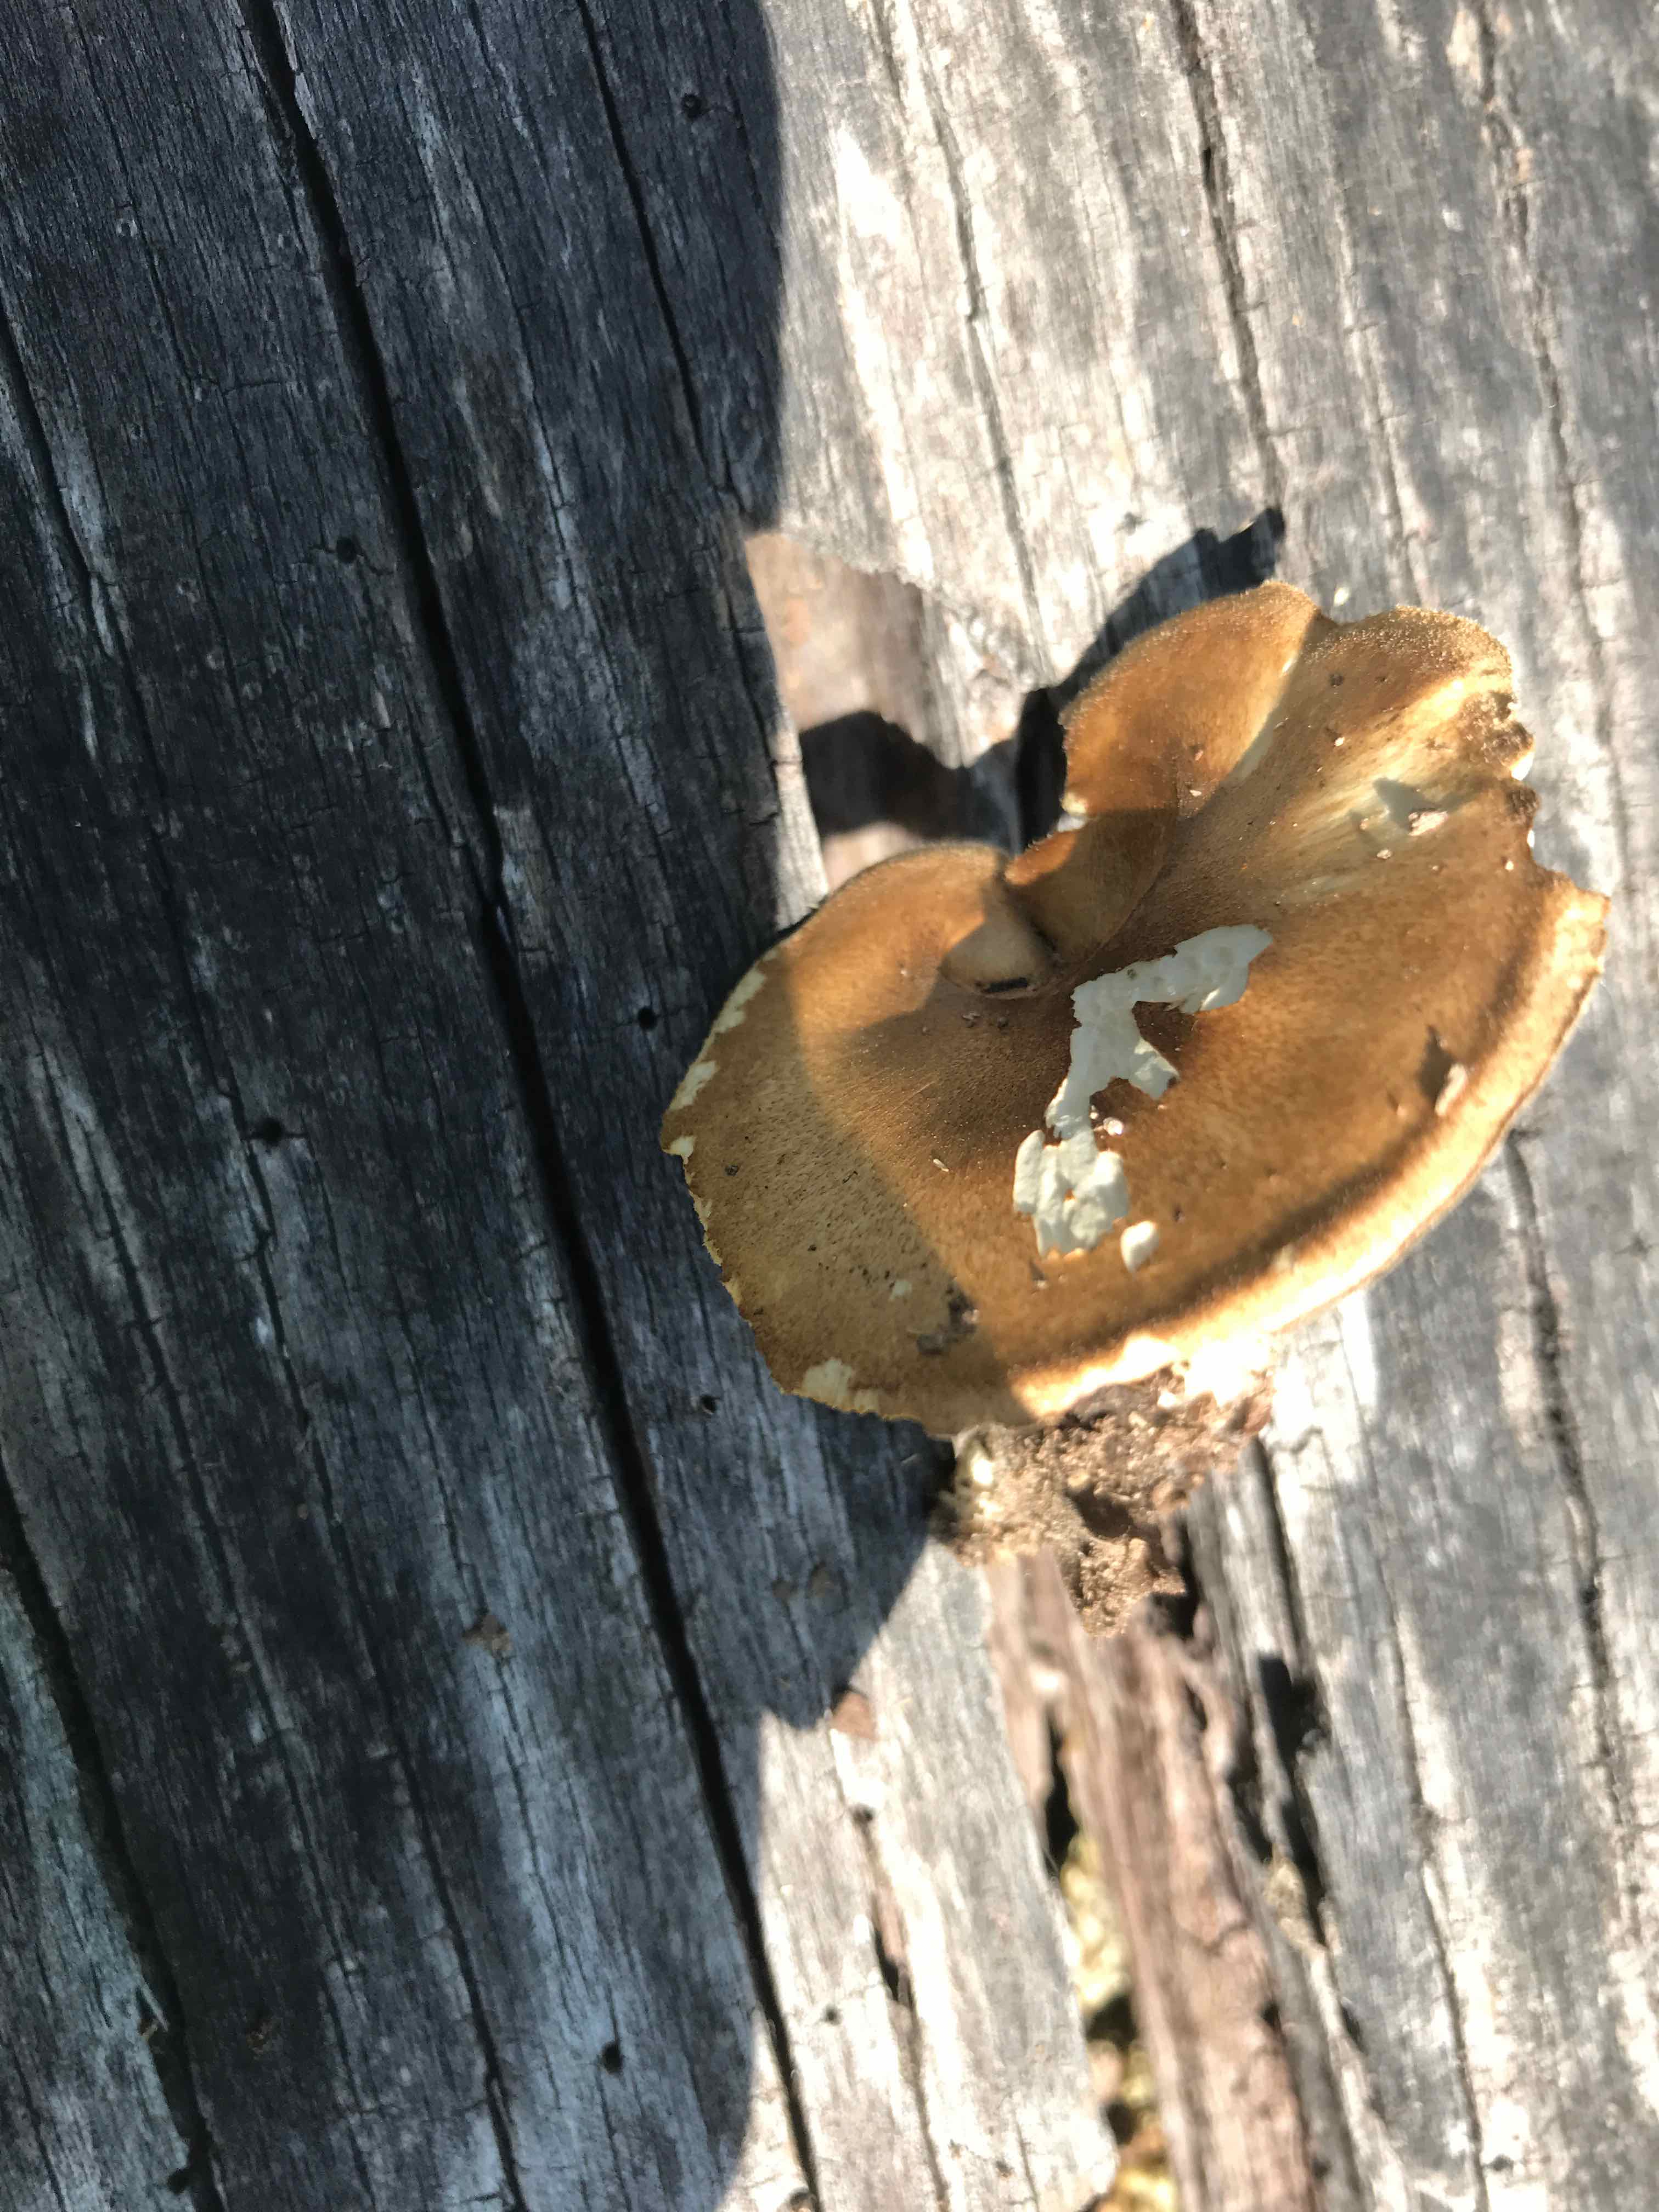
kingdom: Fungi
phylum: Basidiomycota
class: Agaricomycetes
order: Polyporales
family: Polyporaceae
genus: Lentinus
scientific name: Lentinus substrictus
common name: forårs-stilkporesvamp
